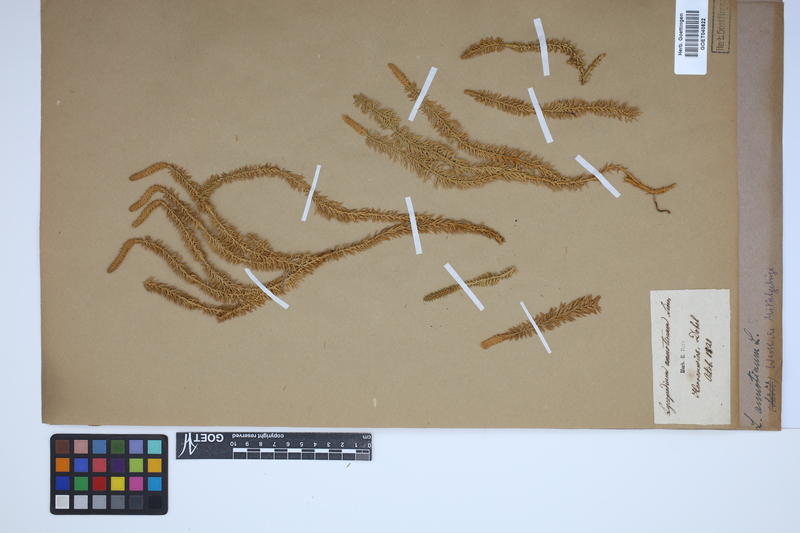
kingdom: Plantae
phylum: Tracheophyta
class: Lycopodiopsida
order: Lycopodiales
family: Lycopodiaceae
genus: Spinulum
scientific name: Spinulum annotinum
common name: Interrupted club-moss
